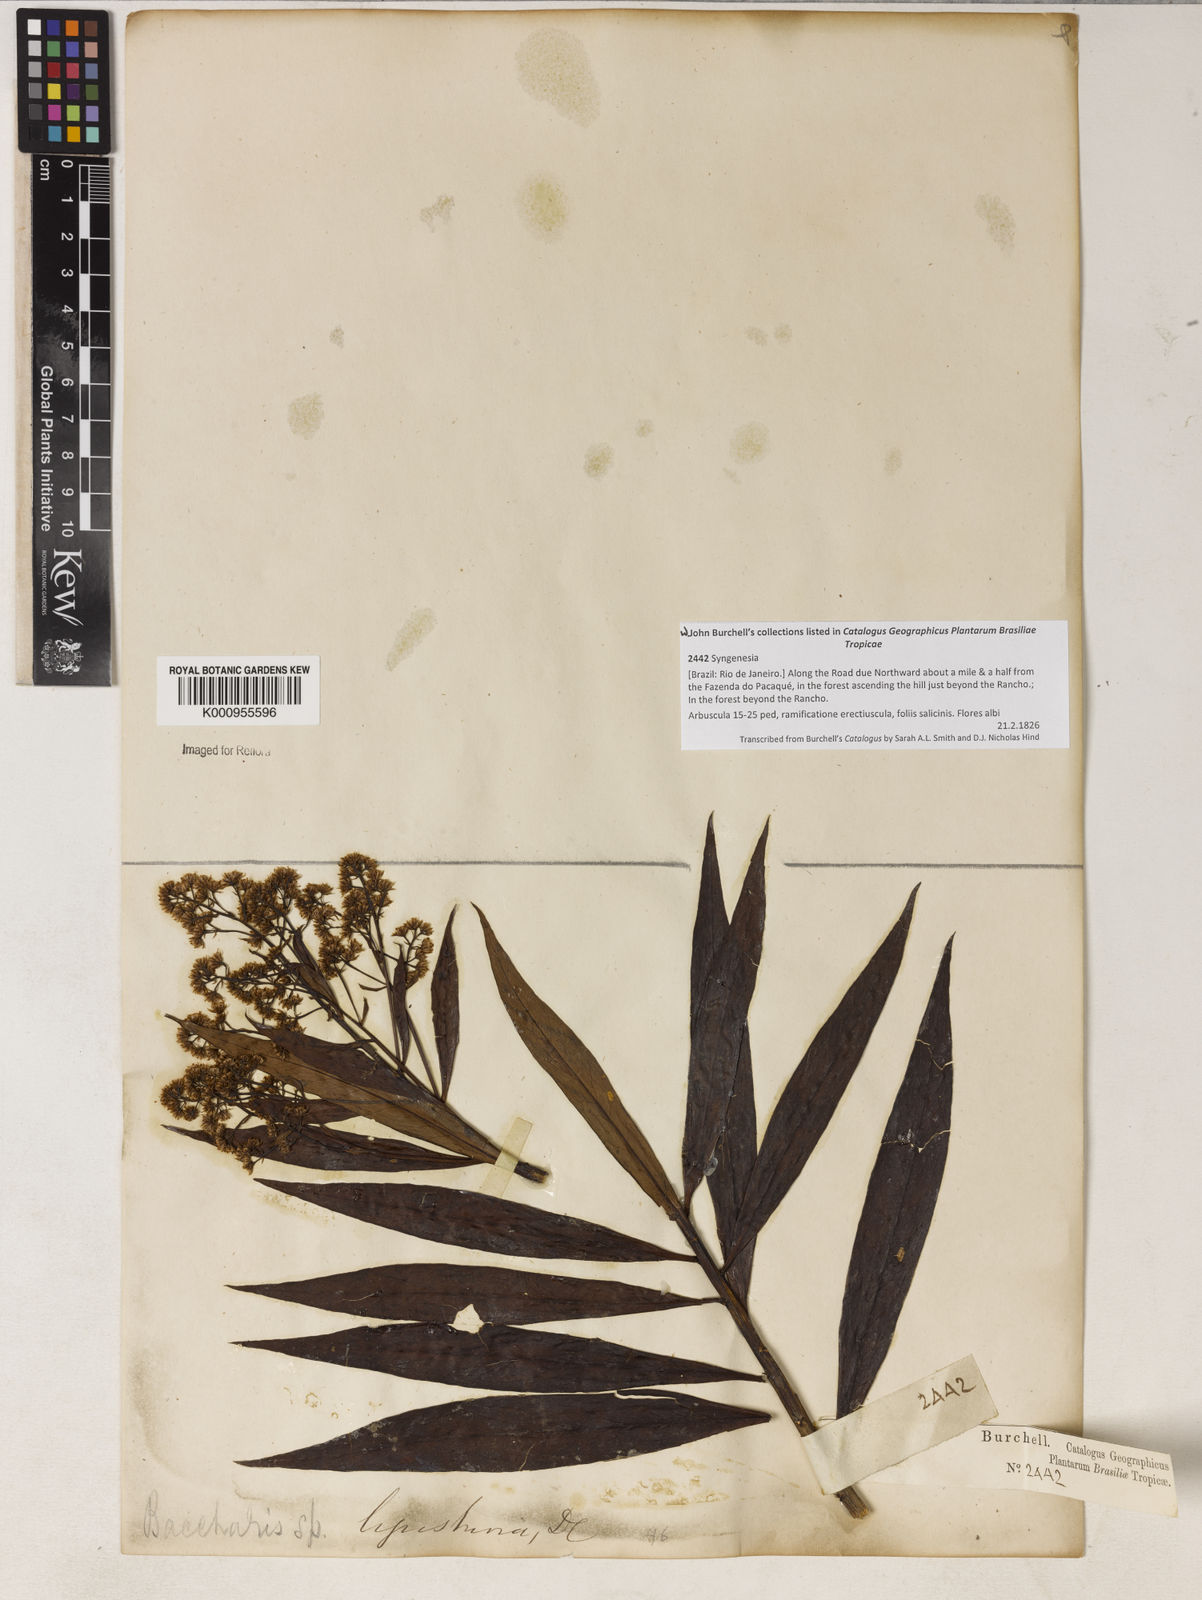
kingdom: Plantae
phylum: Tracheophyta
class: Magnoliopsida
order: Asterales
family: Asteraceae
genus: Baccharis
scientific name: Baccharis ligustrina
